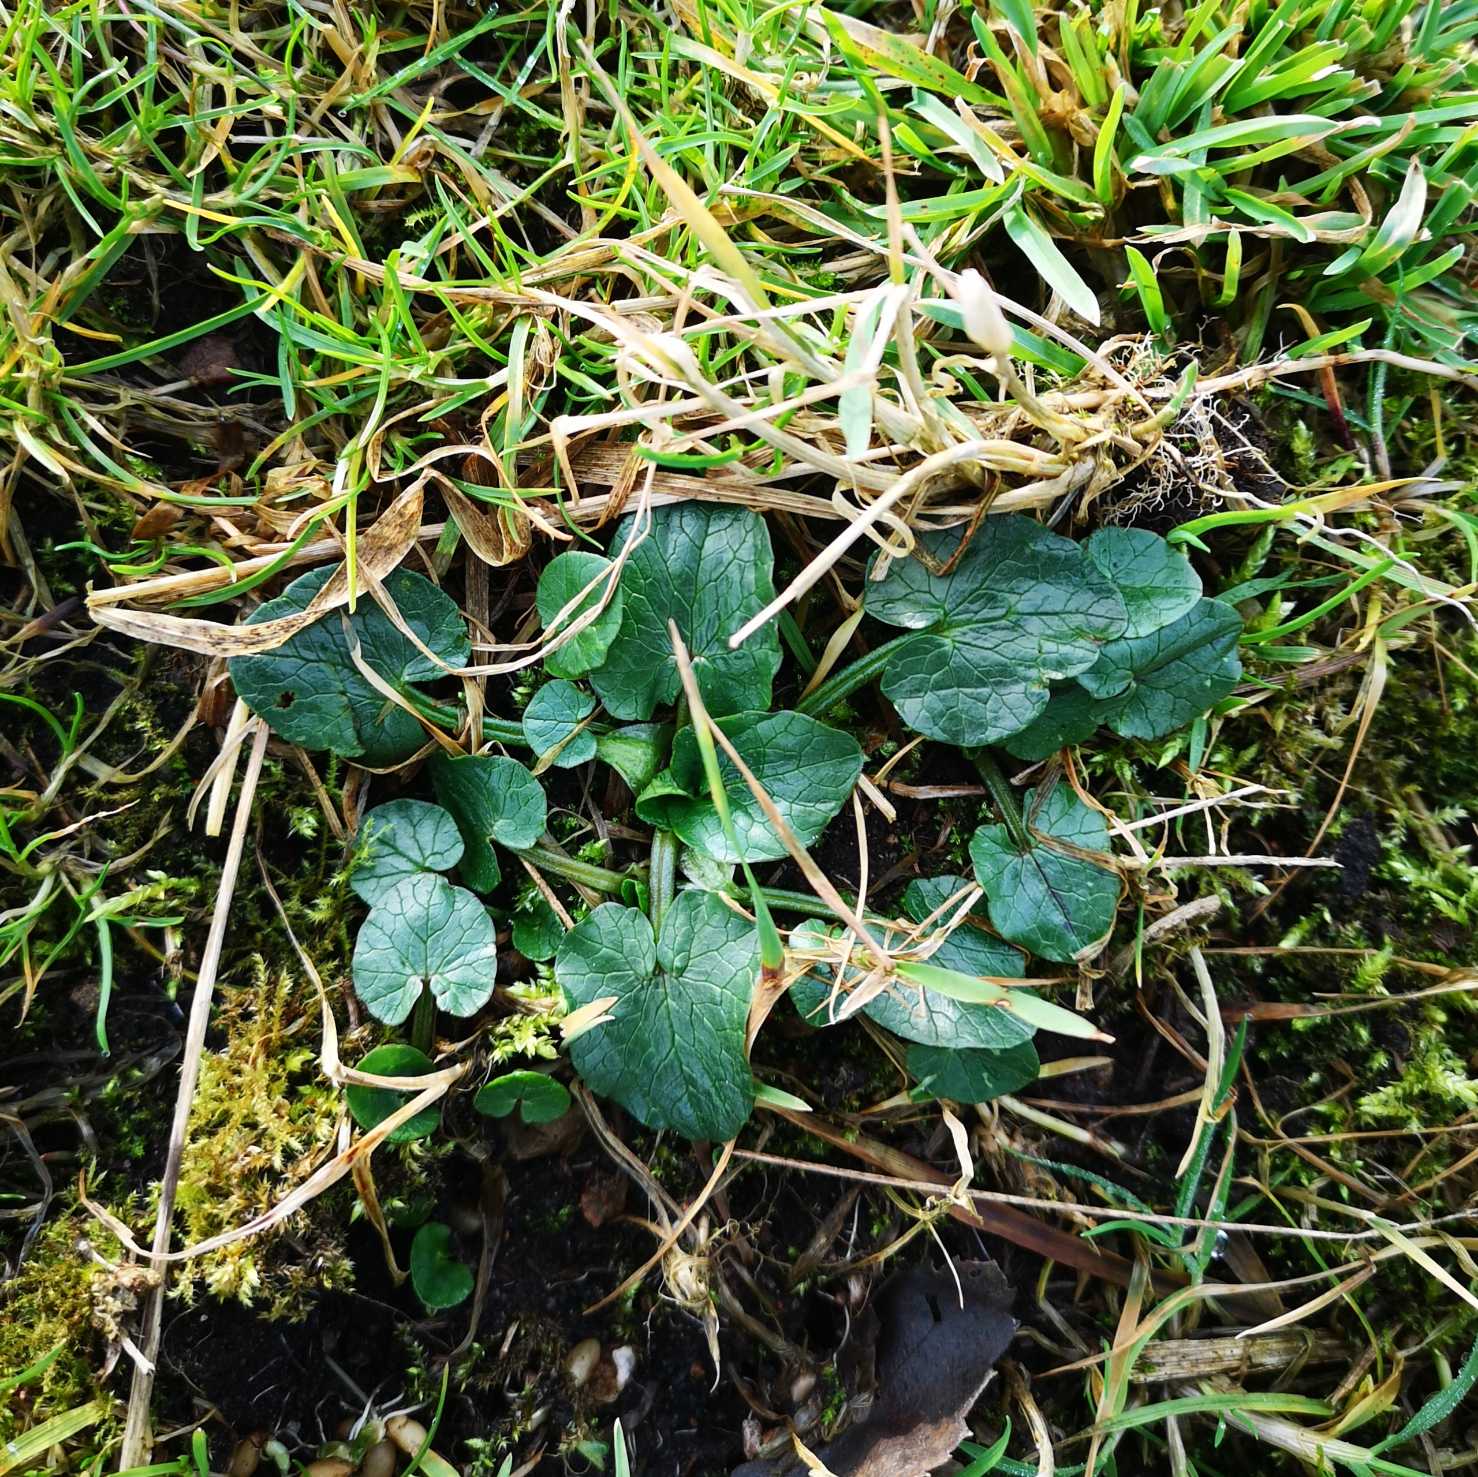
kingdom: Plantae
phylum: Tracheophyta
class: Magnoliopsida
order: Ranunculales
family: Ranunculaceae
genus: Ficaria
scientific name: Ficaria verna
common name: Vorterod
